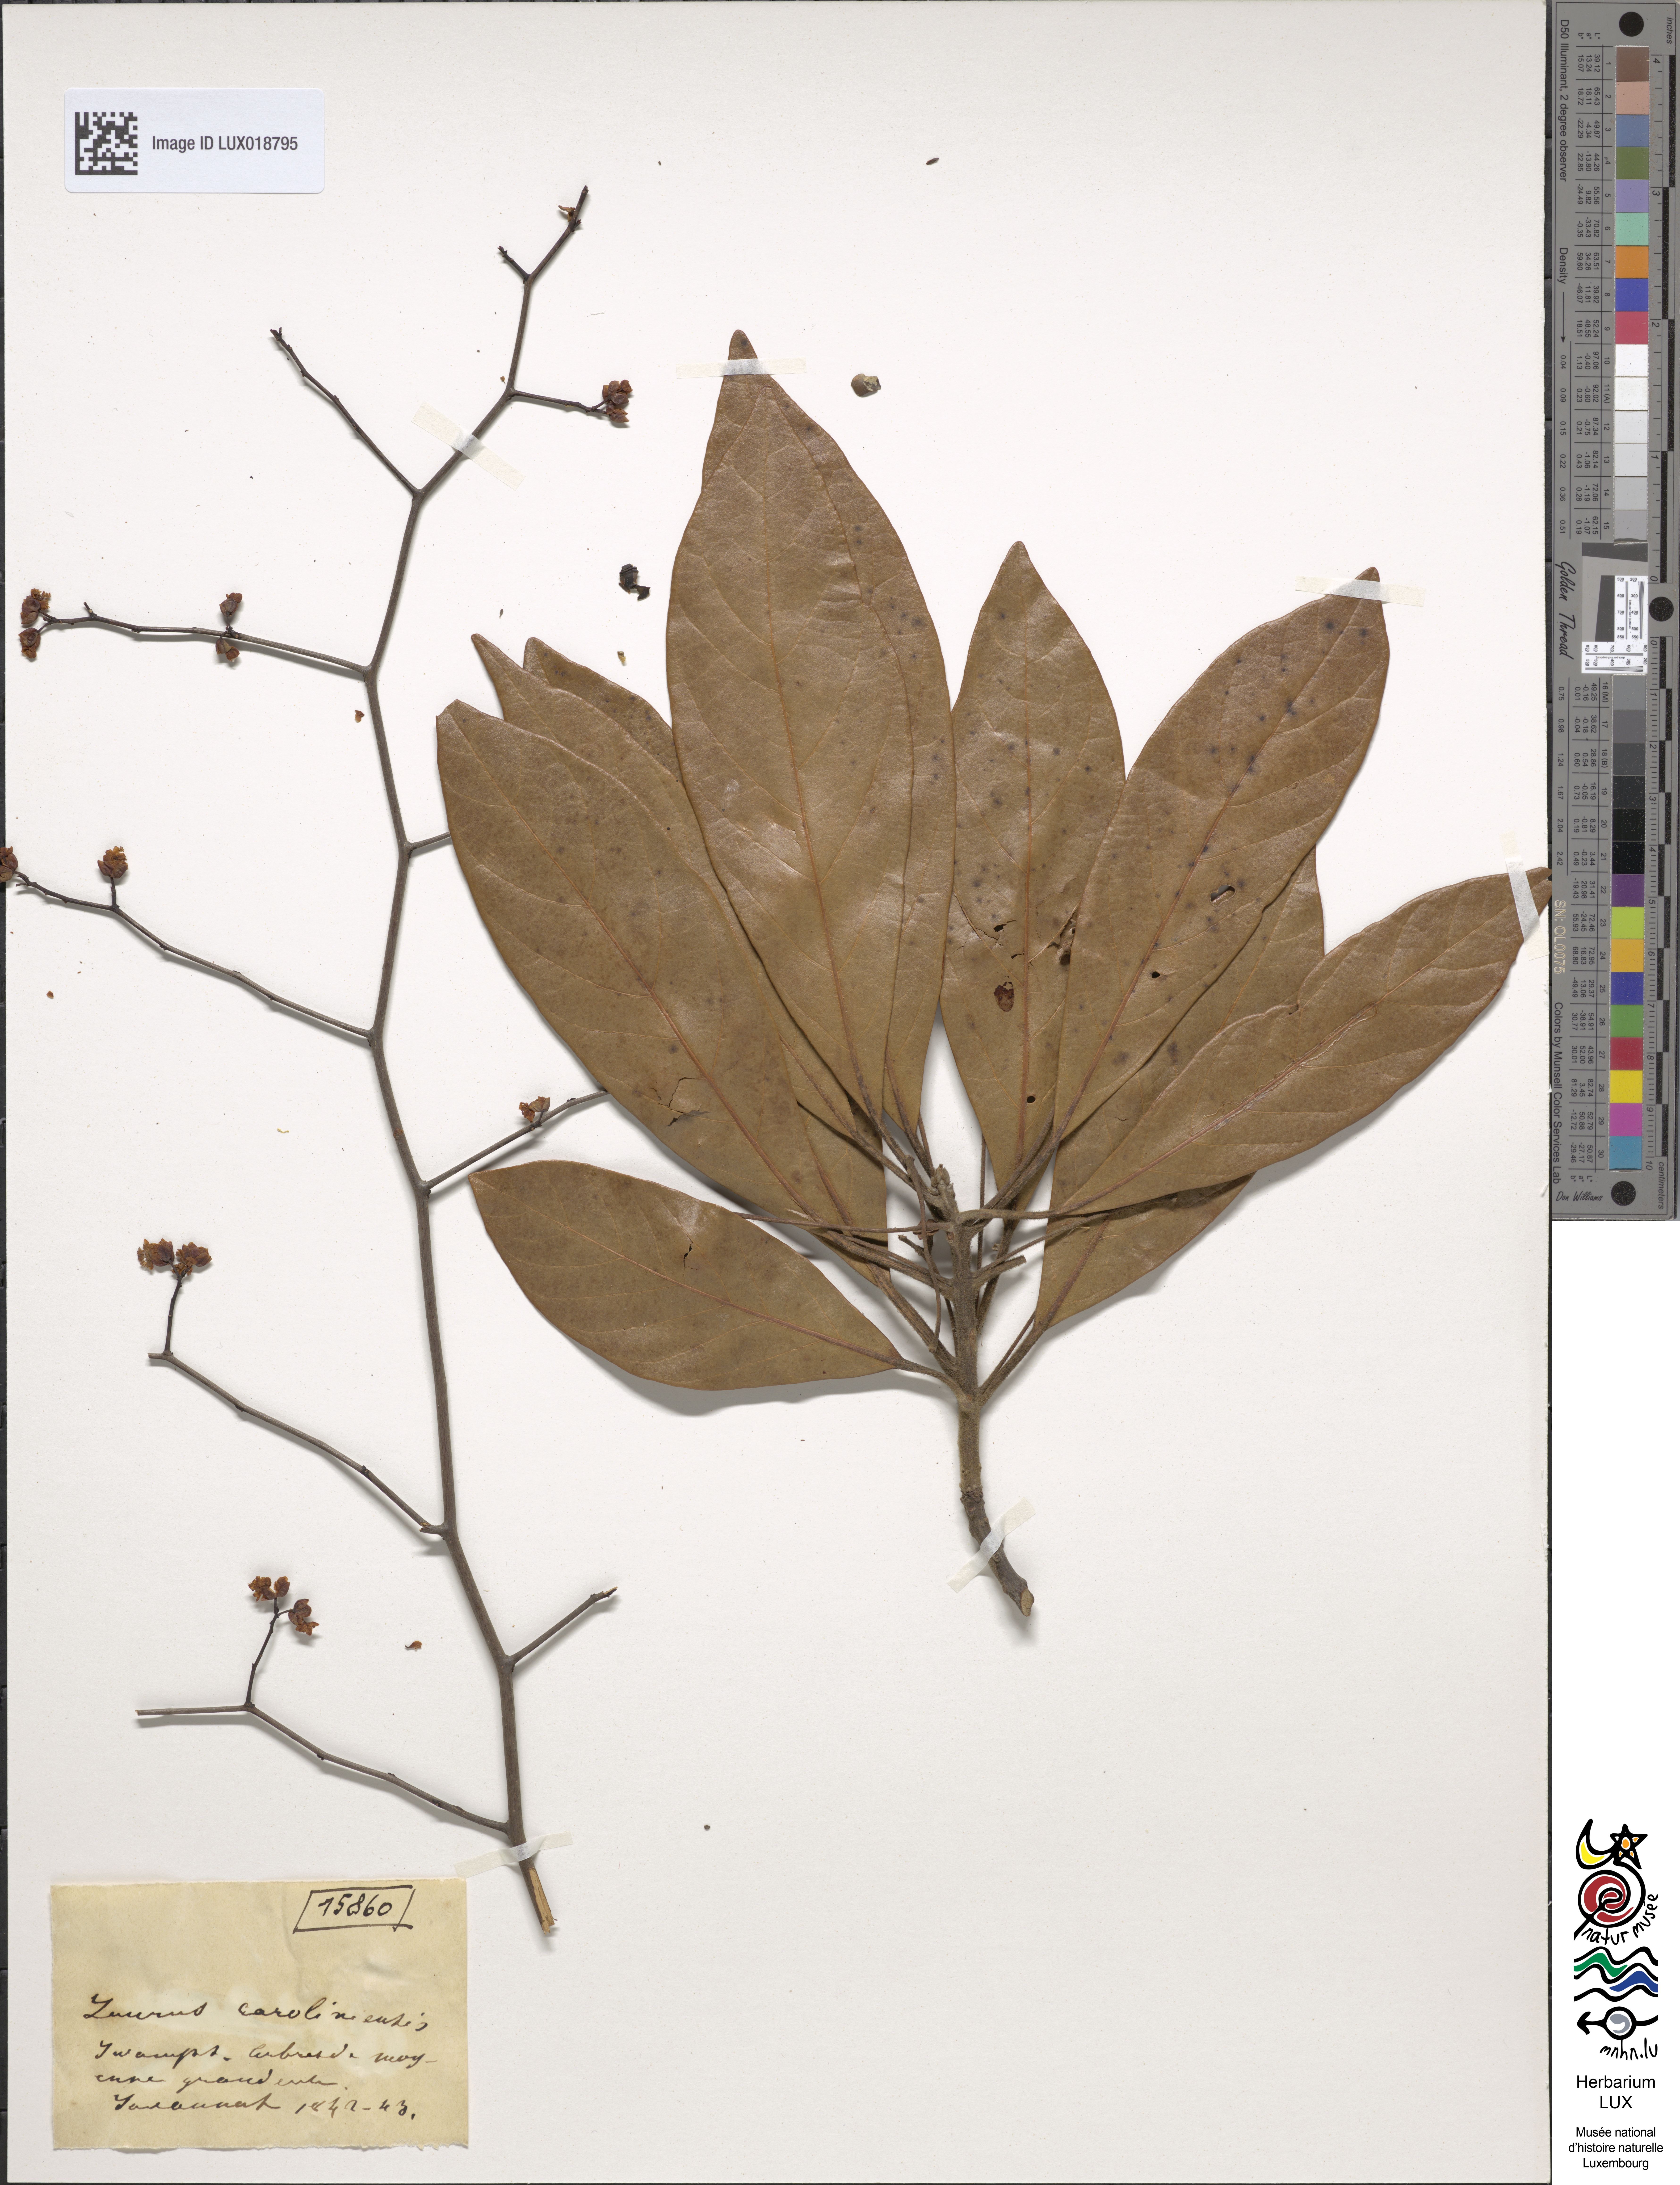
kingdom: Plantae
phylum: Tracheophyta
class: Magnoliopsida
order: Laurales
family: Lauraceae
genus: Persea
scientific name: Persea borbonia
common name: Redbay
